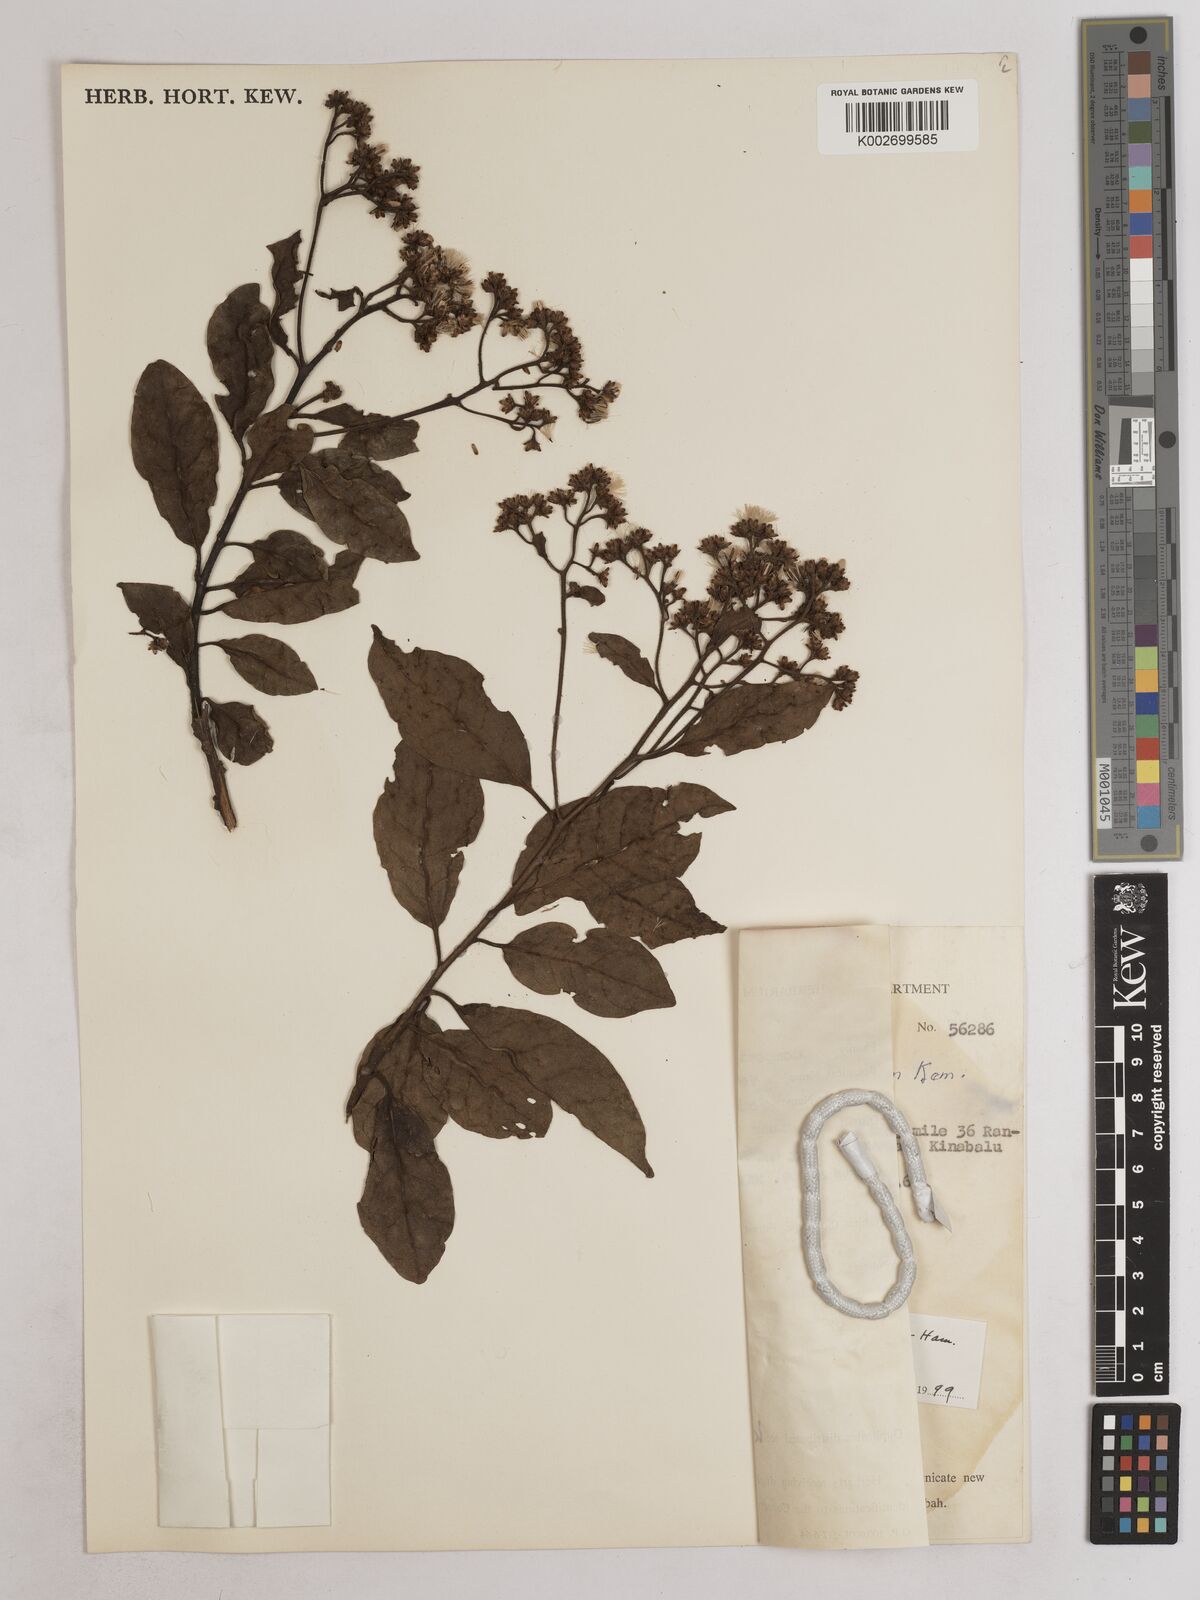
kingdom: Plantae
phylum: Tracheophyta
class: Magnoliopsida
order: Asterales
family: Asteraceae
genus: Strobocalyx
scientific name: Strobocalyx arborea
